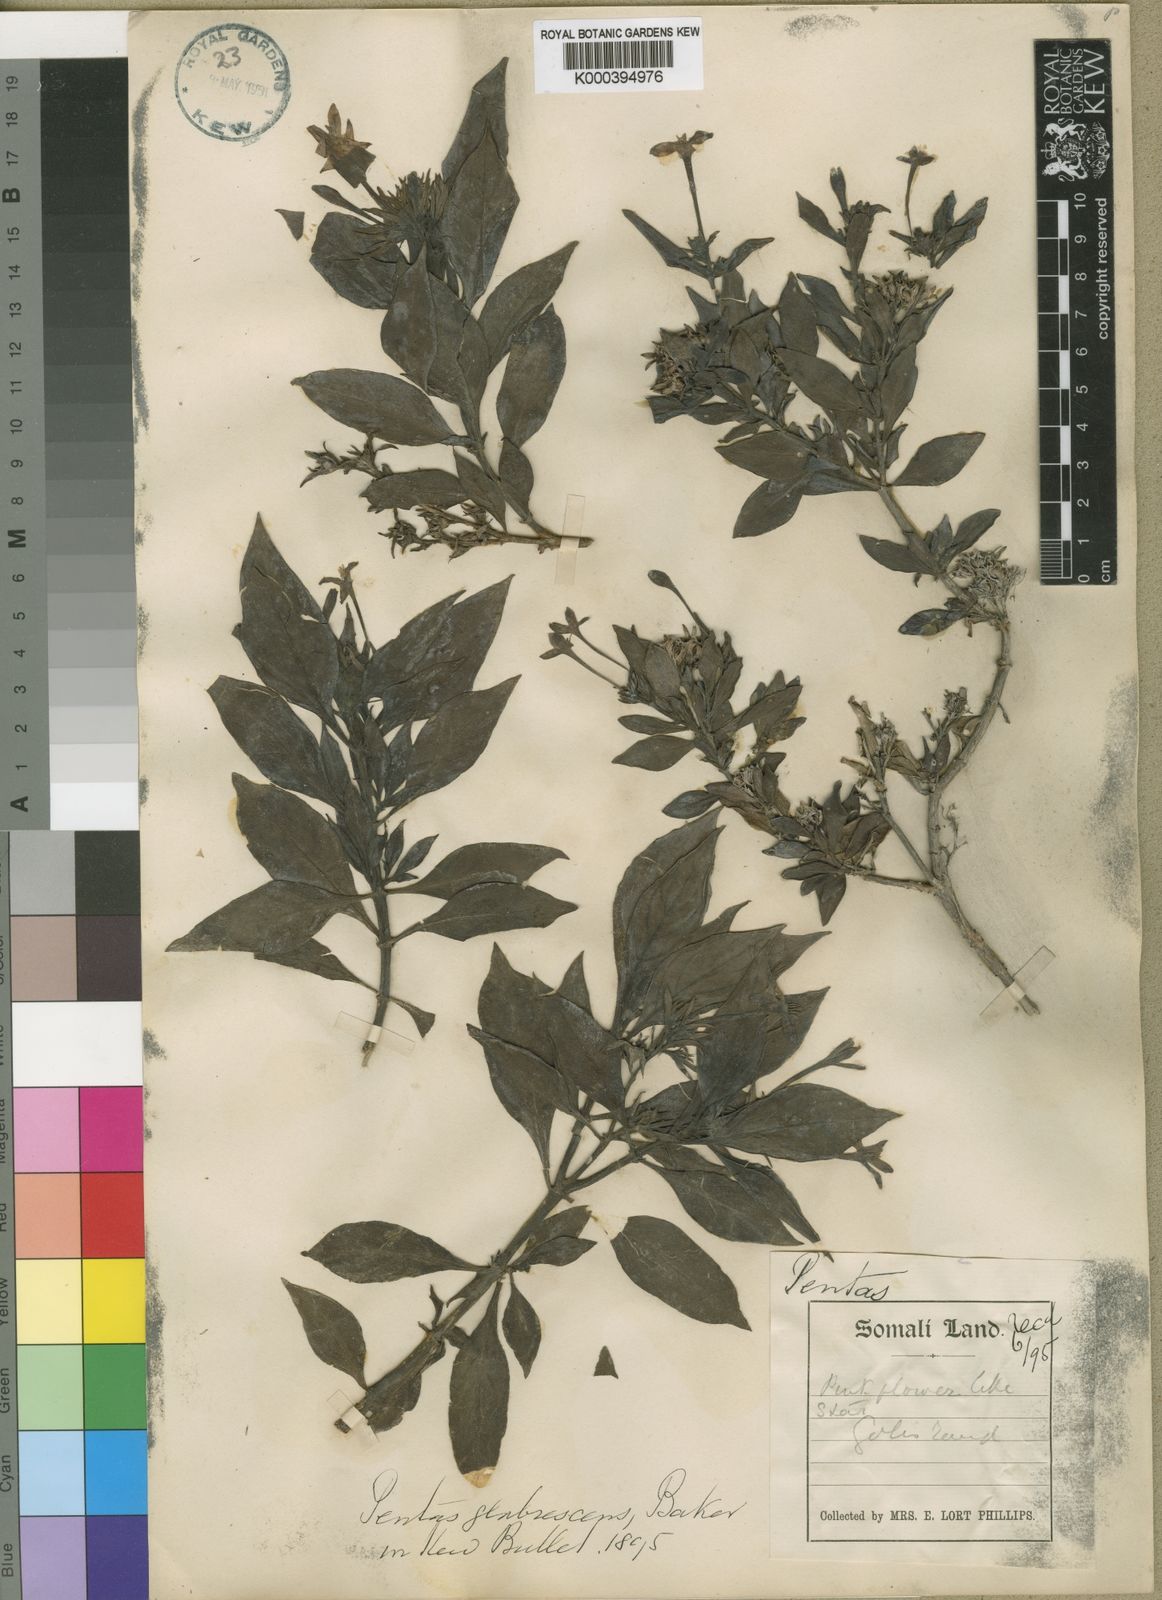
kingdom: Plantae
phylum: Tracheophyta
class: Magnoliopsida
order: Gentianales
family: Rubiaceae
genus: Pentas
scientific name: Pentas glabrescens
